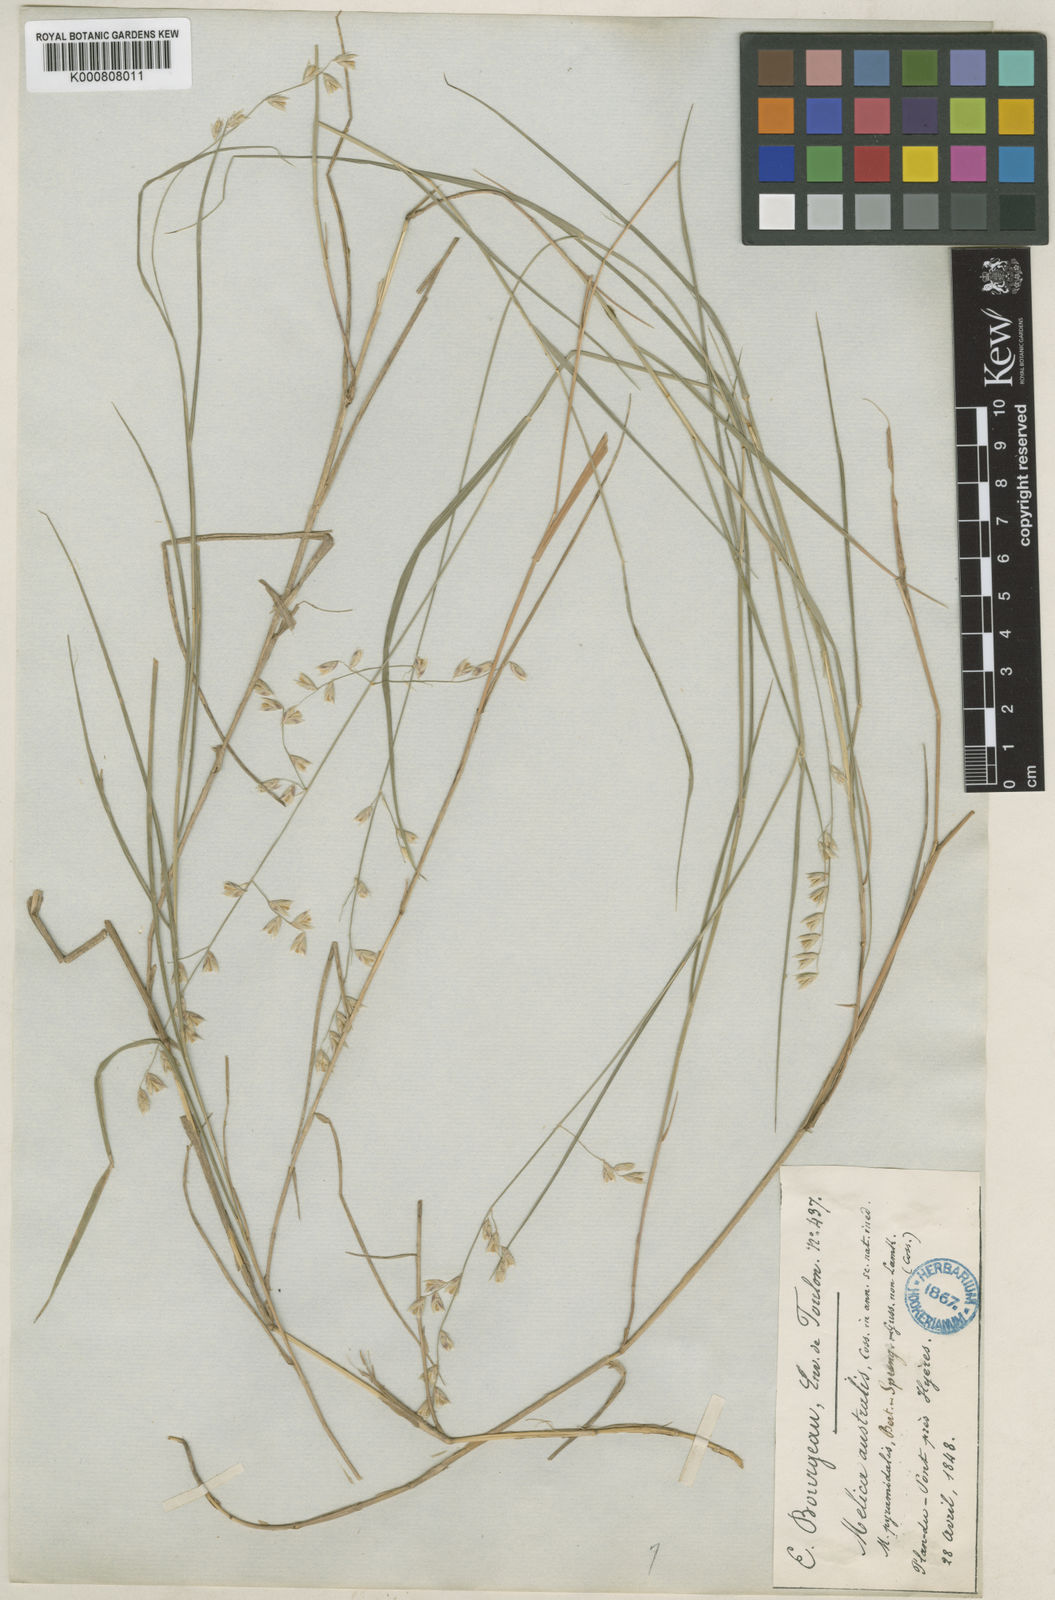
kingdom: Plantae
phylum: Tracheophyta
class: Liliopsida
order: Poales
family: Poaceae
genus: Melica
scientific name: Melica minuta
